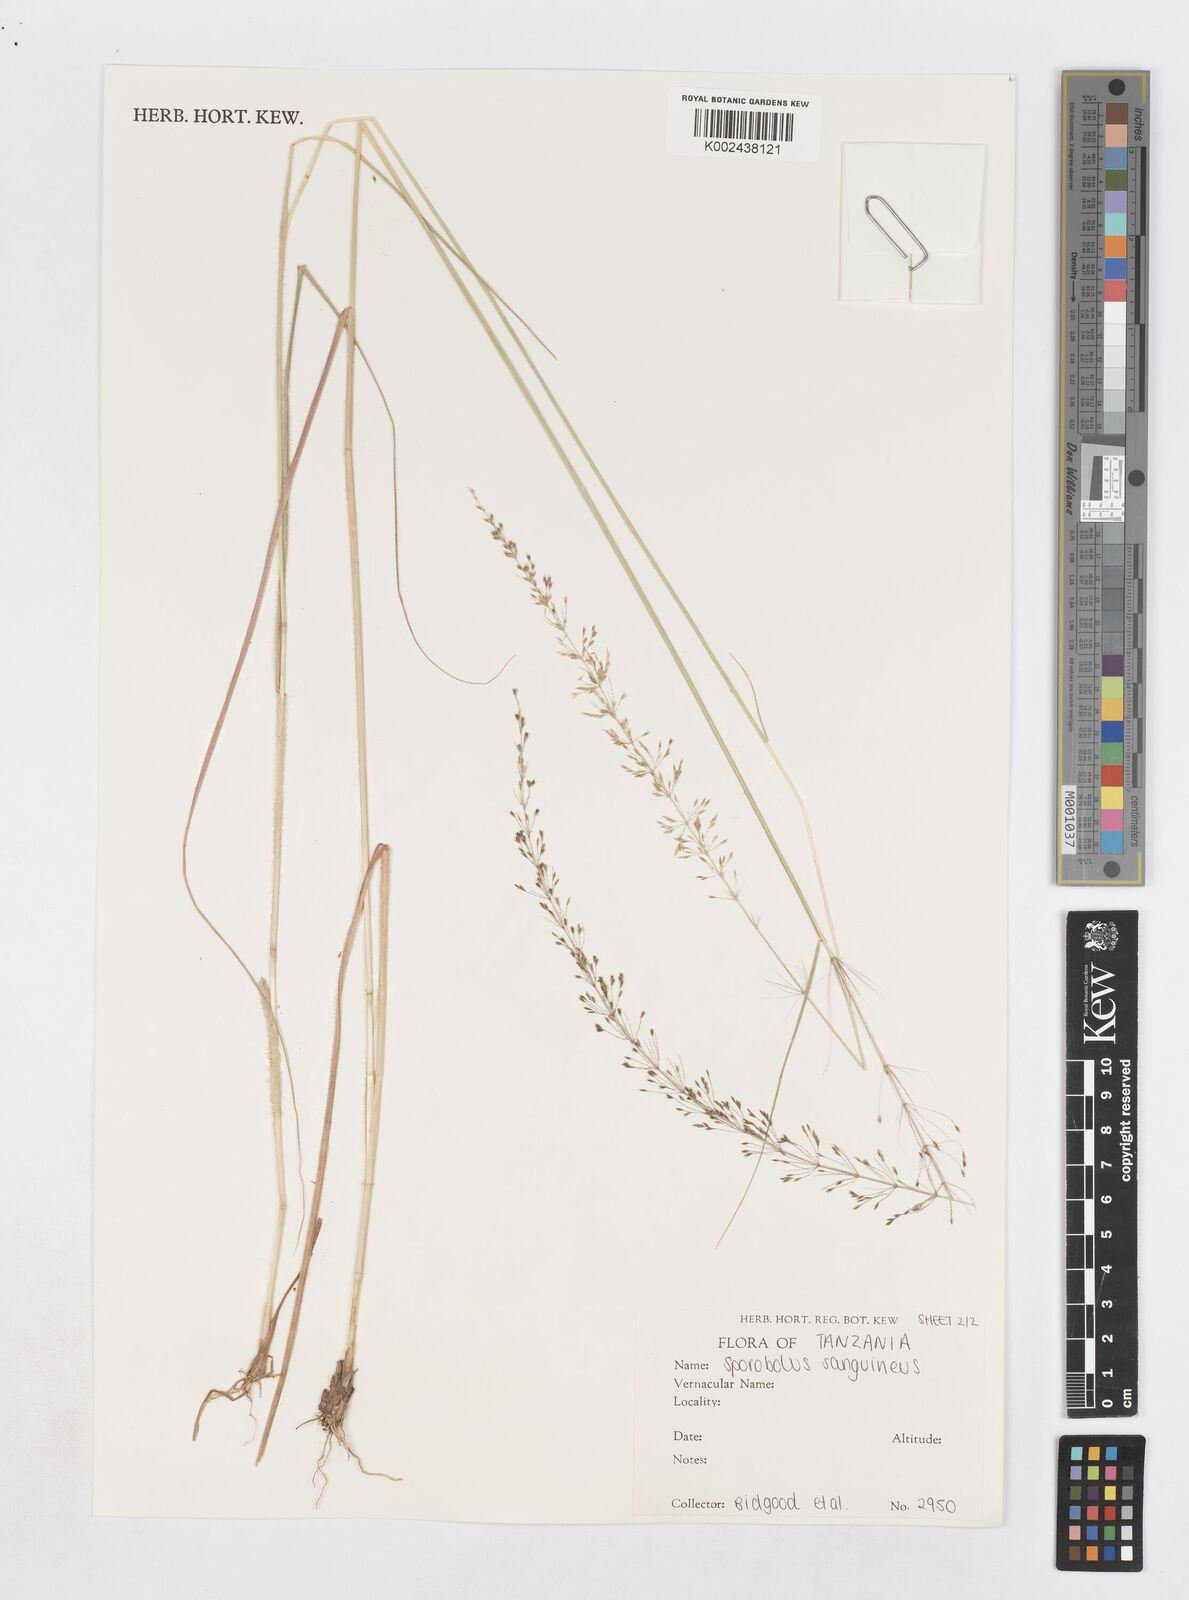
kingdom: Plantae
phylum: Tracheophyta
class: Liliopsida
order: Poales
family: Poaceae
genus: Sporobolus
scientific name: Sporobolus sanguineus
